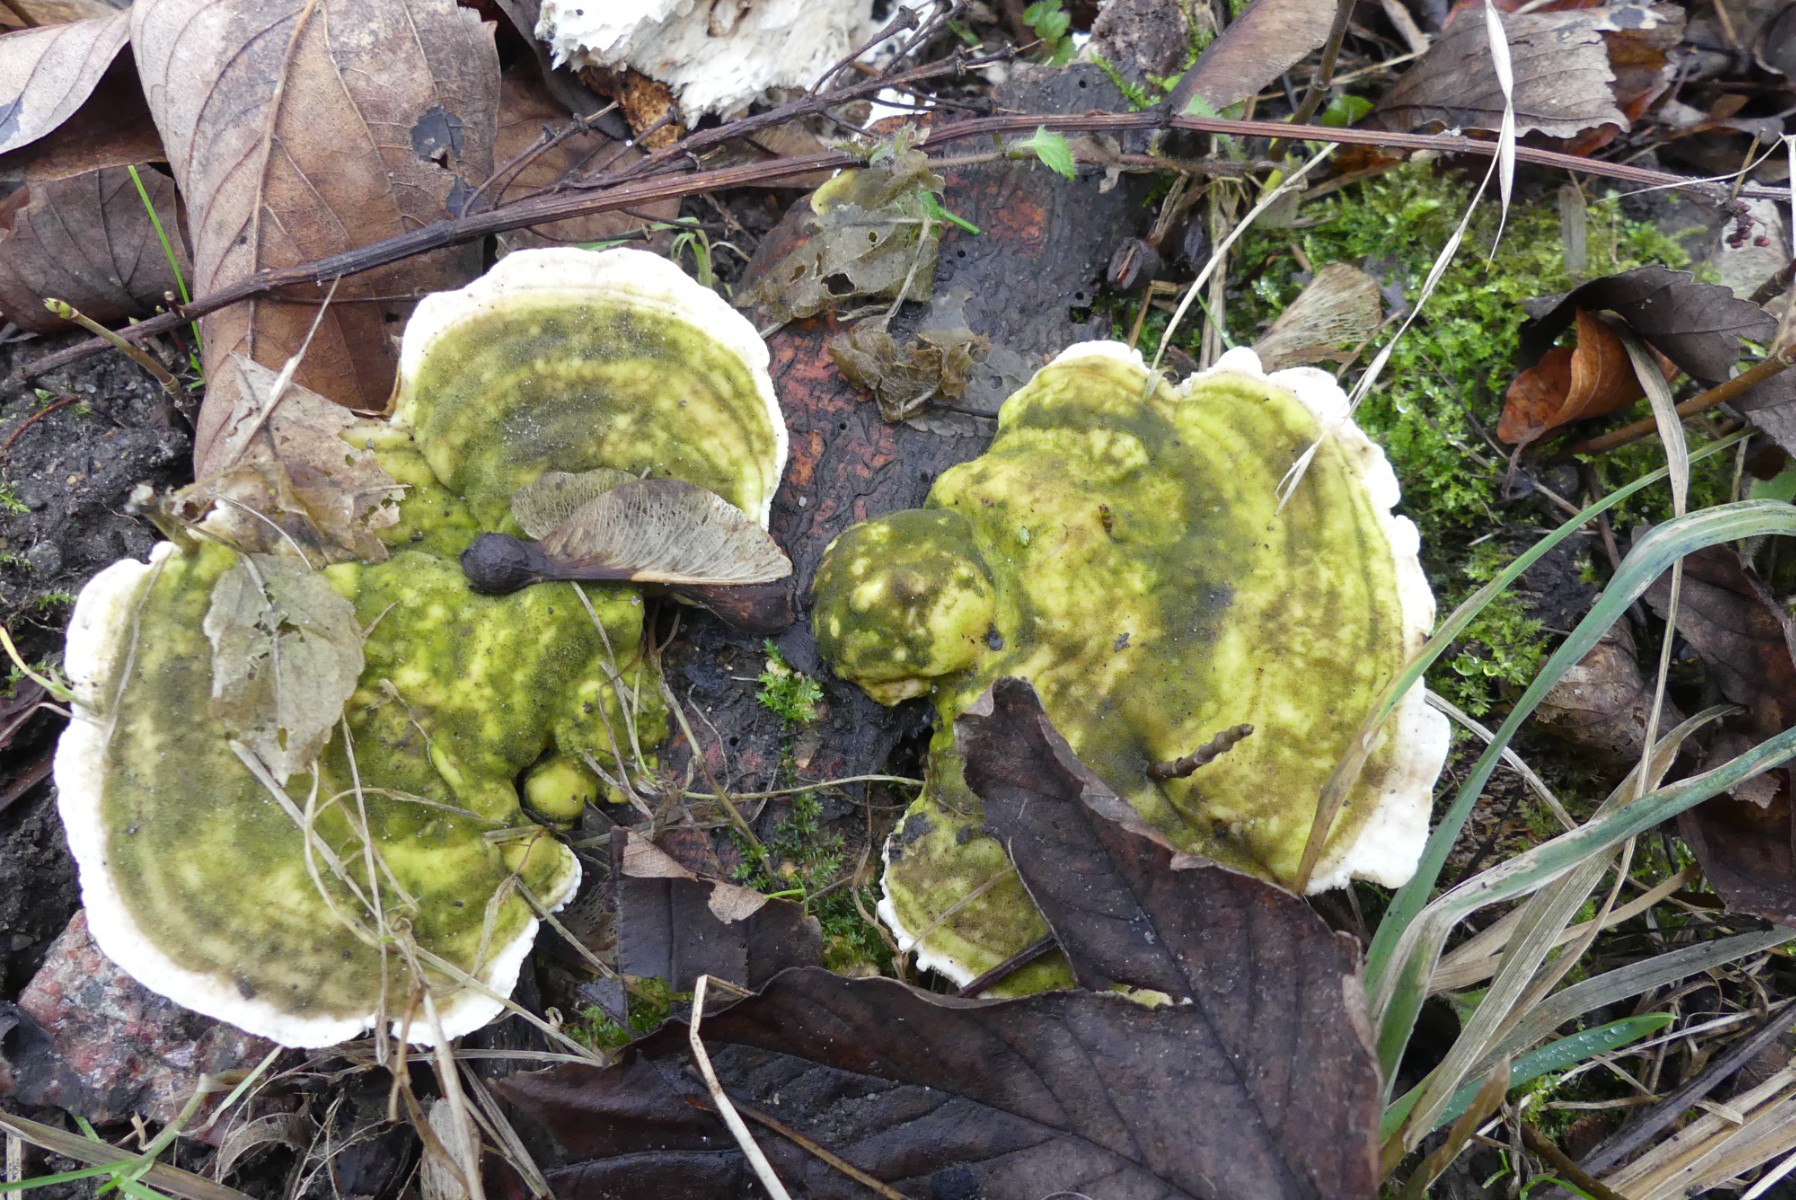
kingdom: Fungi
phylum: Basidiomycota
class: Agaricomycetes
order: Polyporales
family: Polyporaceae
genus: Trametes
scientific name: Trametes gibbosa
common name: puklet læderporesvamp
